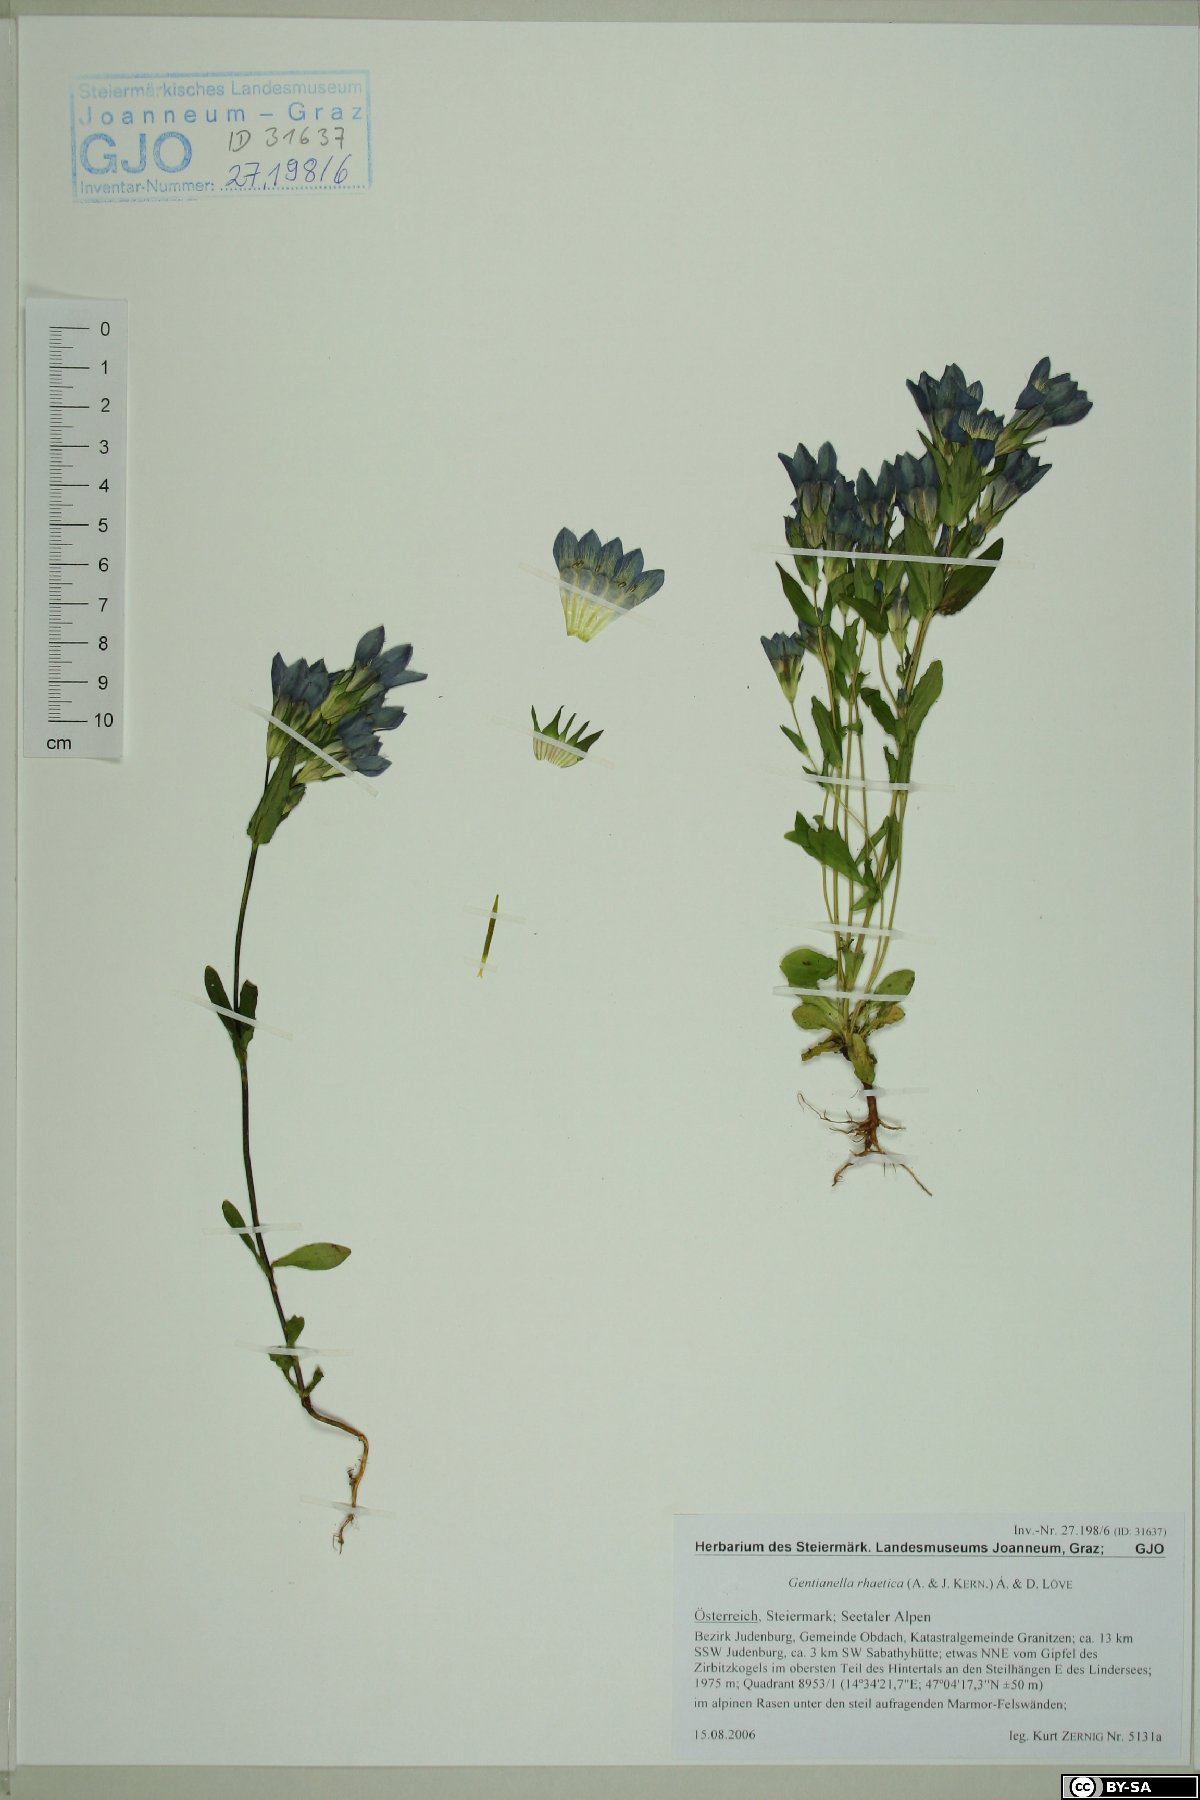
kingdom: Plantae
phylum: Tracheophyta
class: Magnoliopsida
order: Gentianales
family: Gentianaceae
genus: Gentianella
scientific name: Gentianella rhaetica
